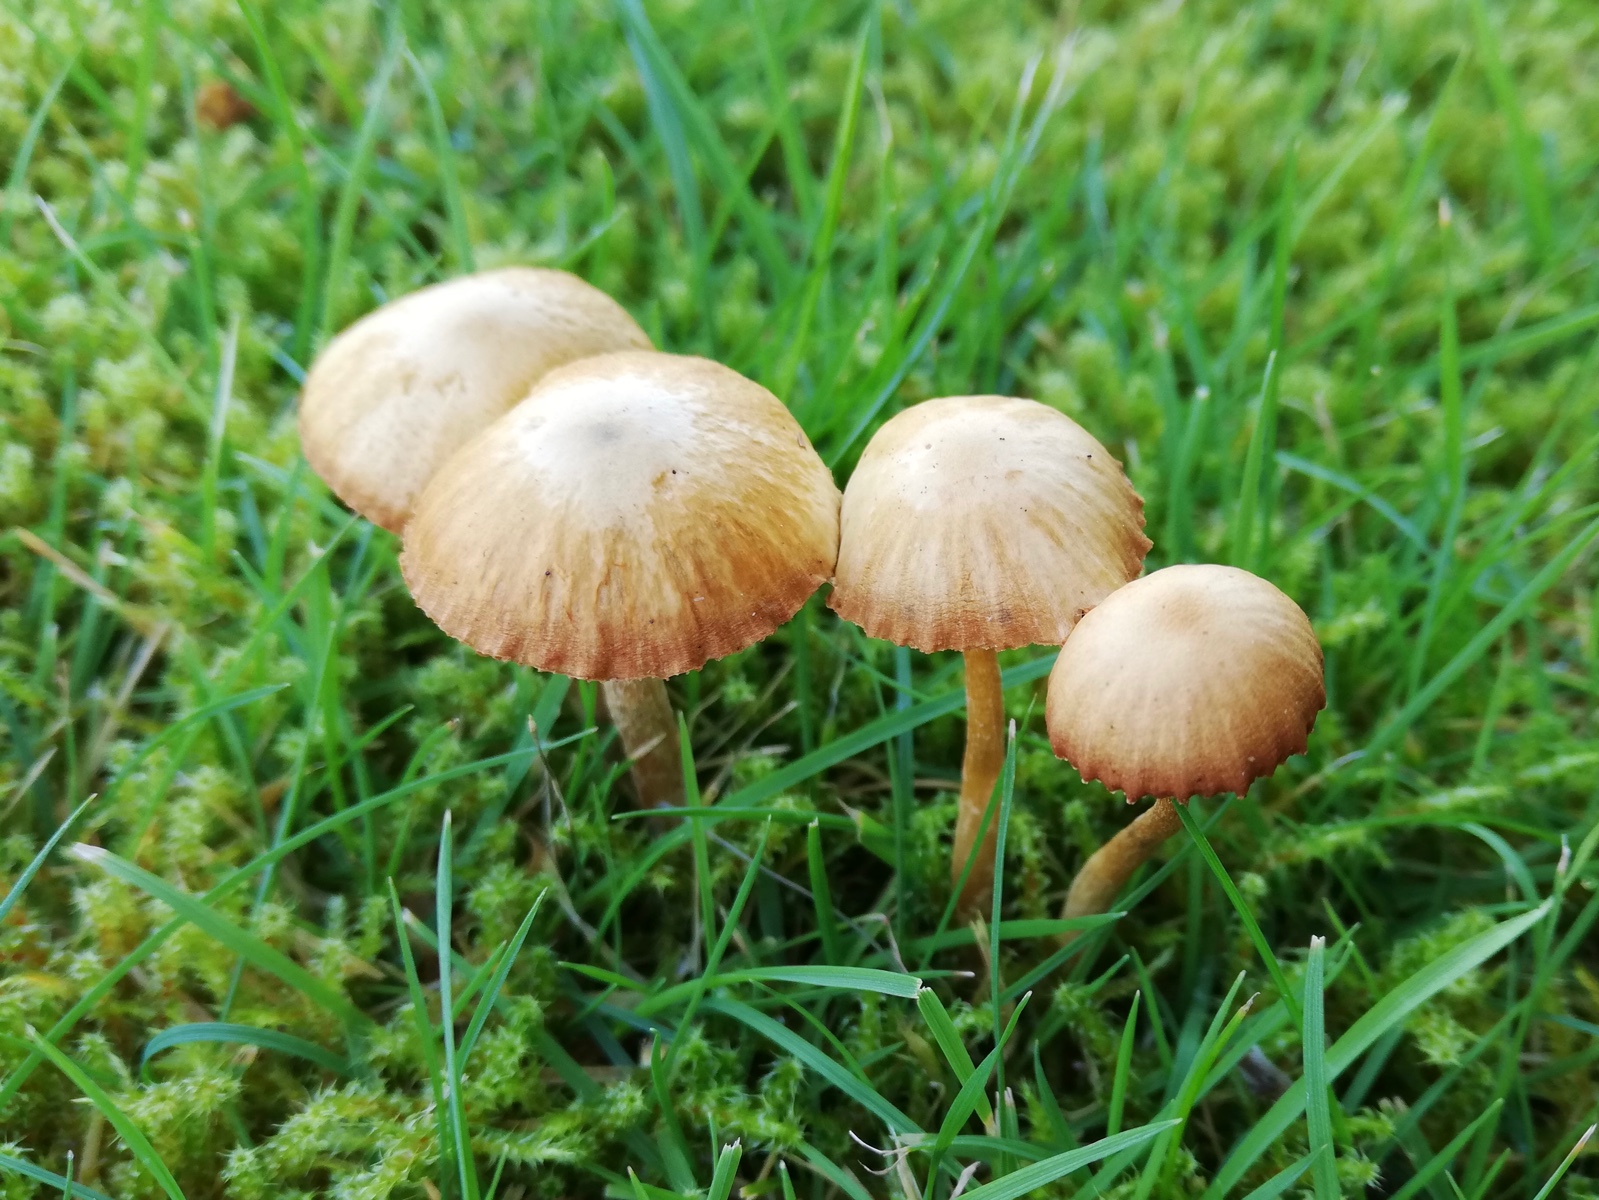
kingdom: Fungi
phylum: Basidiomycota
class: Agaricomycetes
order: Agaricales
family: Hymenogastraceae
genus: Galerina
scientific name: Galerina
